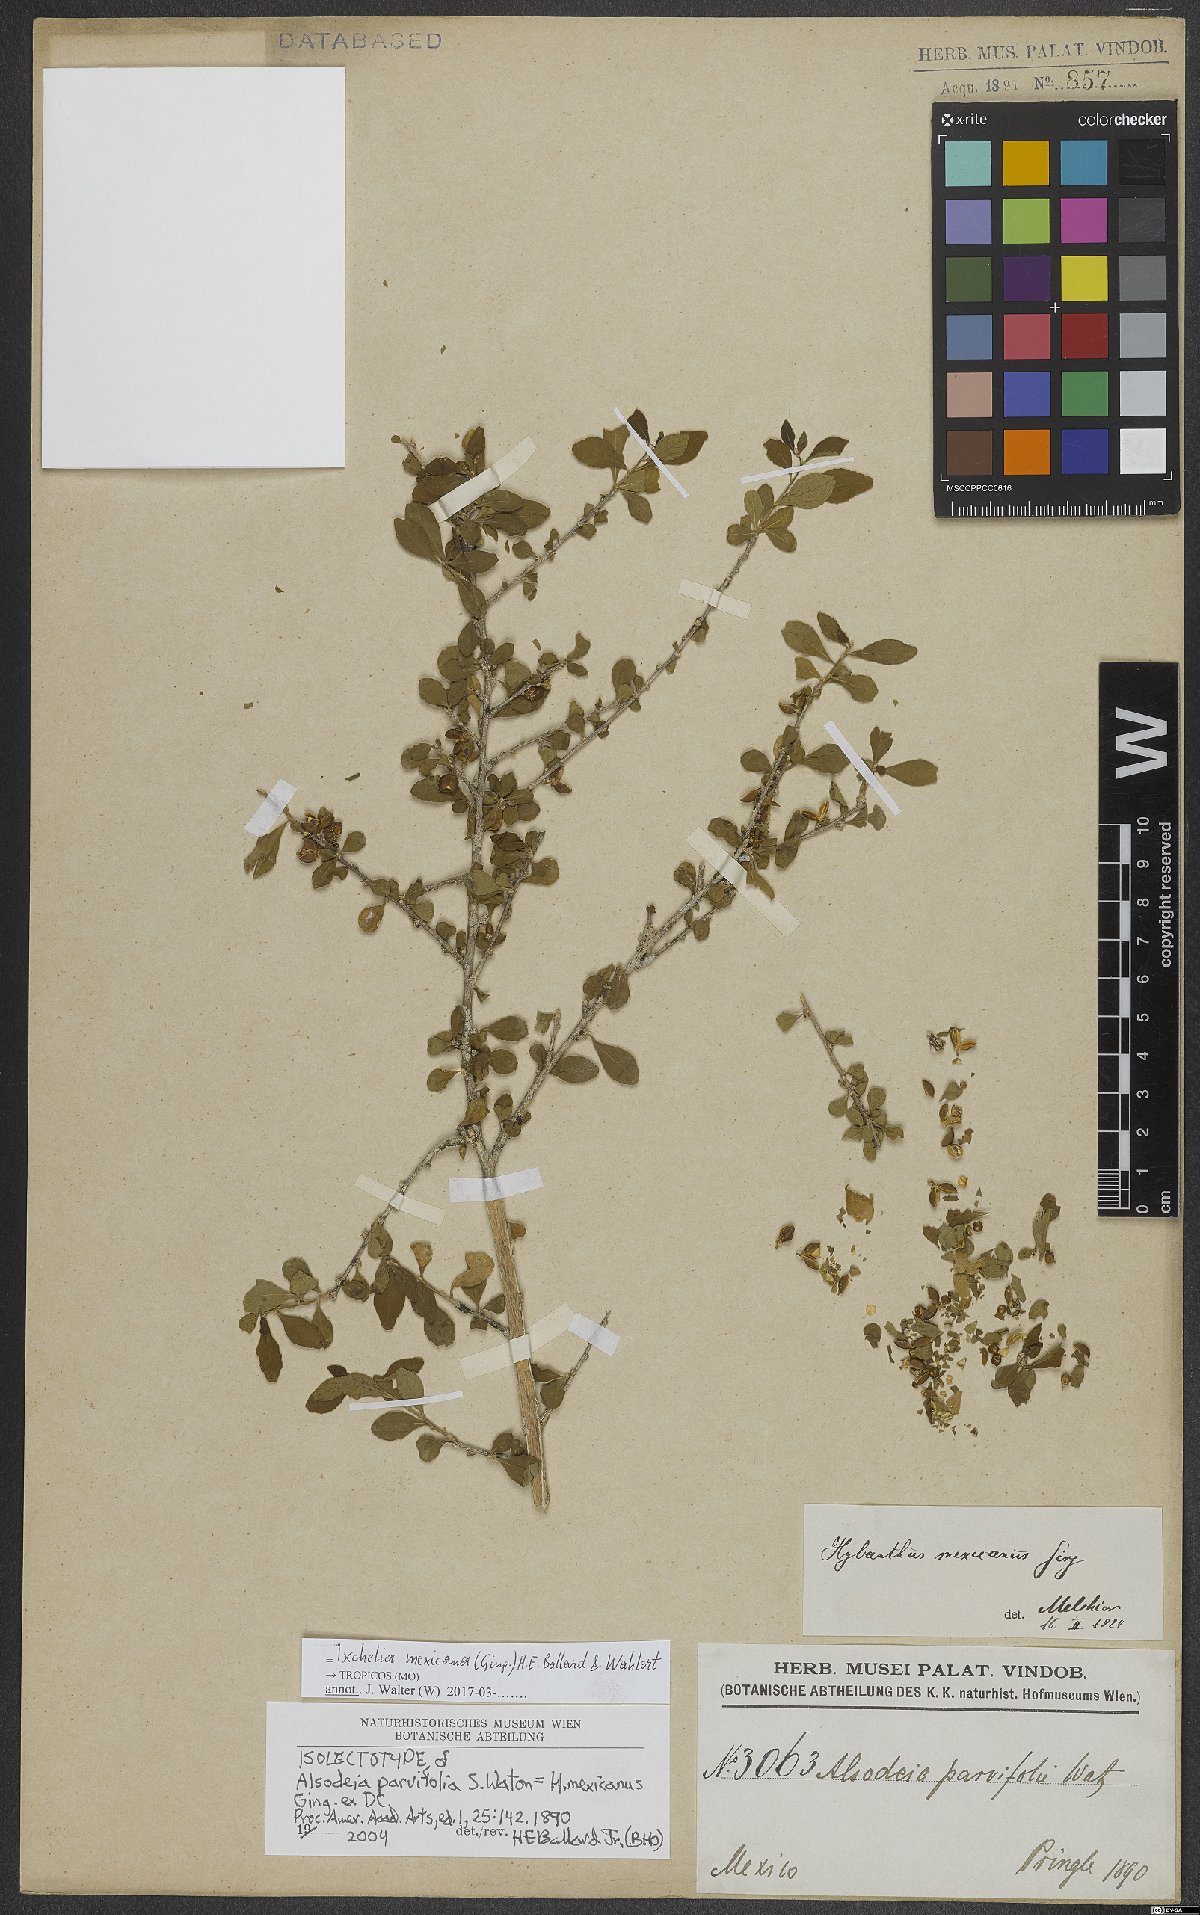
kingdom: Plantae
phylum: Tracheophyta
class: Magnoliopsida
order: Malpighiales
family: Violaceae
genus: Ixchelia
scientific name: Ixchelia mexicana
